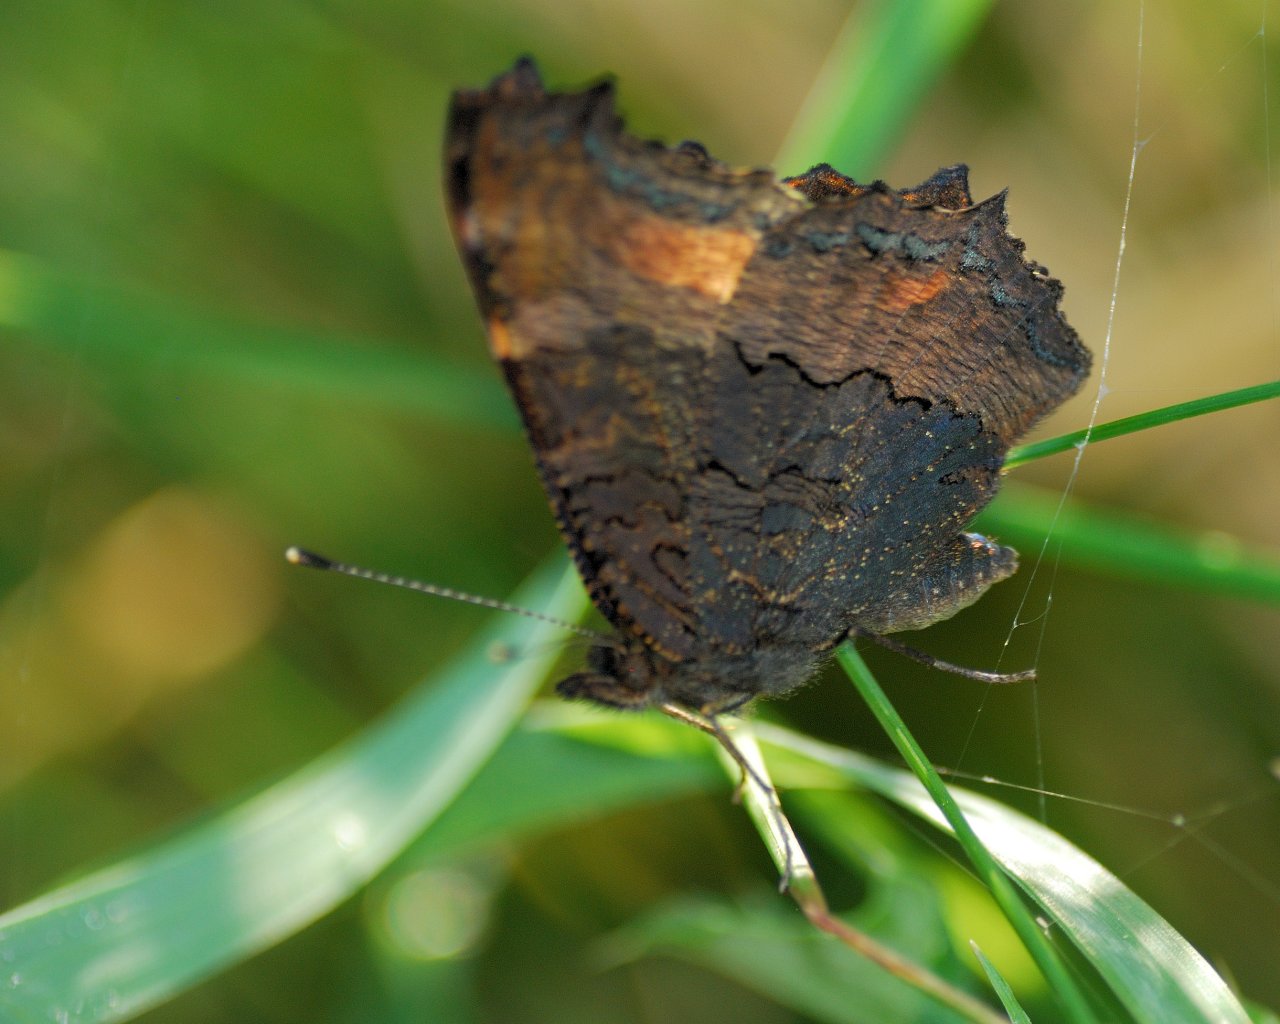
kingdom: Animalia
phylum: Arthropoda
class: Insecta
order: Lepidoptera
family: Nymphalidae
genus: Aglais
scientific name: Aglais milberti
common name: Milbert's Tortoiseshell
